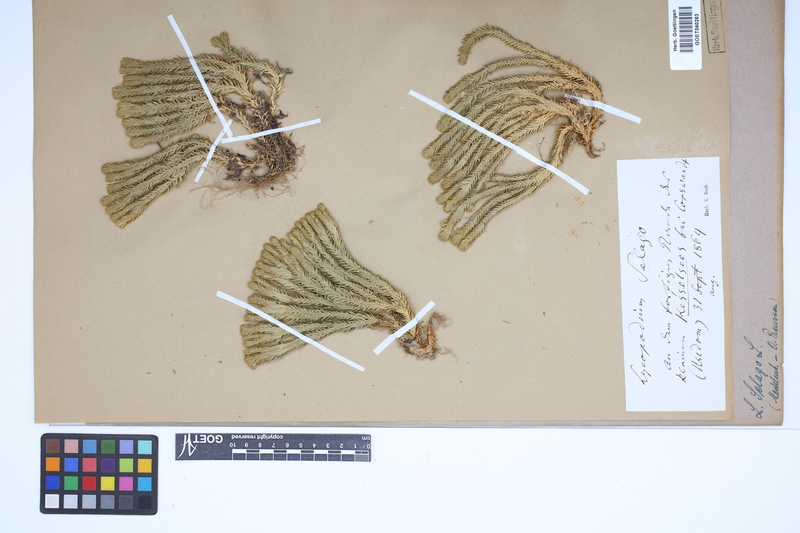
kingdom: Plantae
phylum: Tracheophyta
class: Lycopodiopsida
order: Lycopodiales
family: Lycopodiaceae
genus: Huperzia
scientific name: Huperzia selago
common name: Northern firmoss
